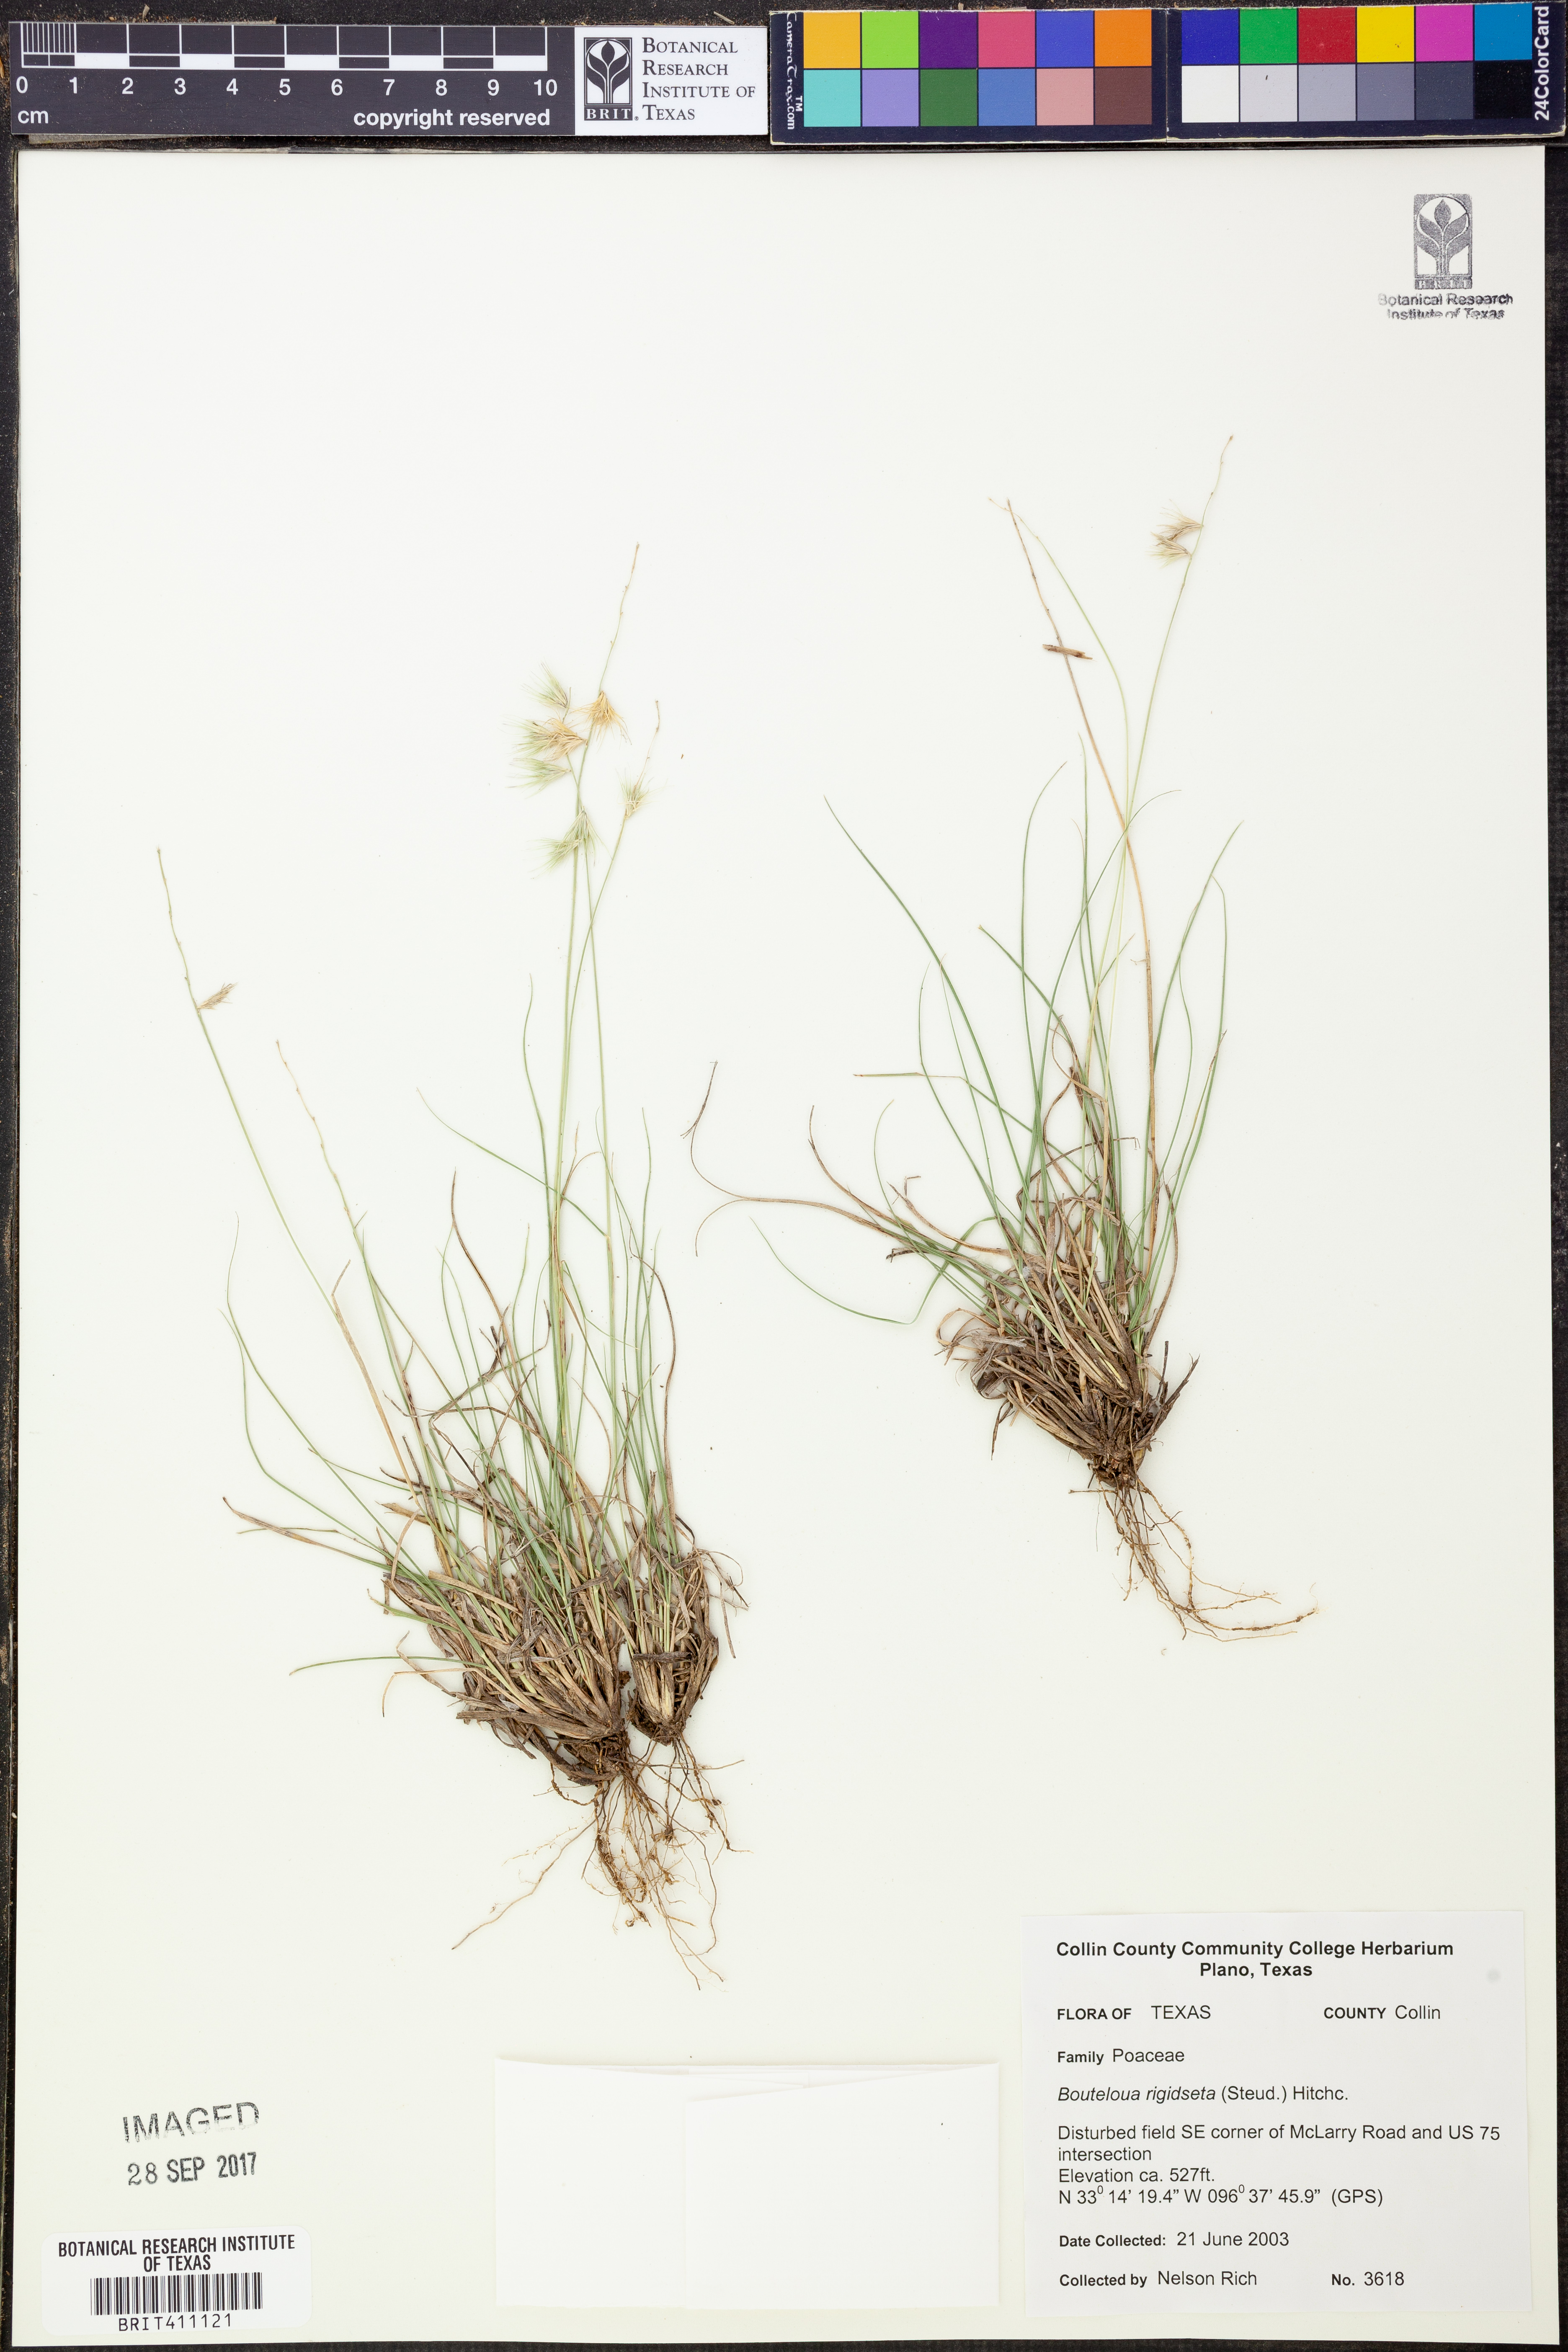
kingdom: Plantae
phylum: Tracheophyta
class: Liliopsida
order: Poales
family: Poaceae
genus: Bouteloua
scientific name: Bouteloua rigidiseta
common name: Texas grama
